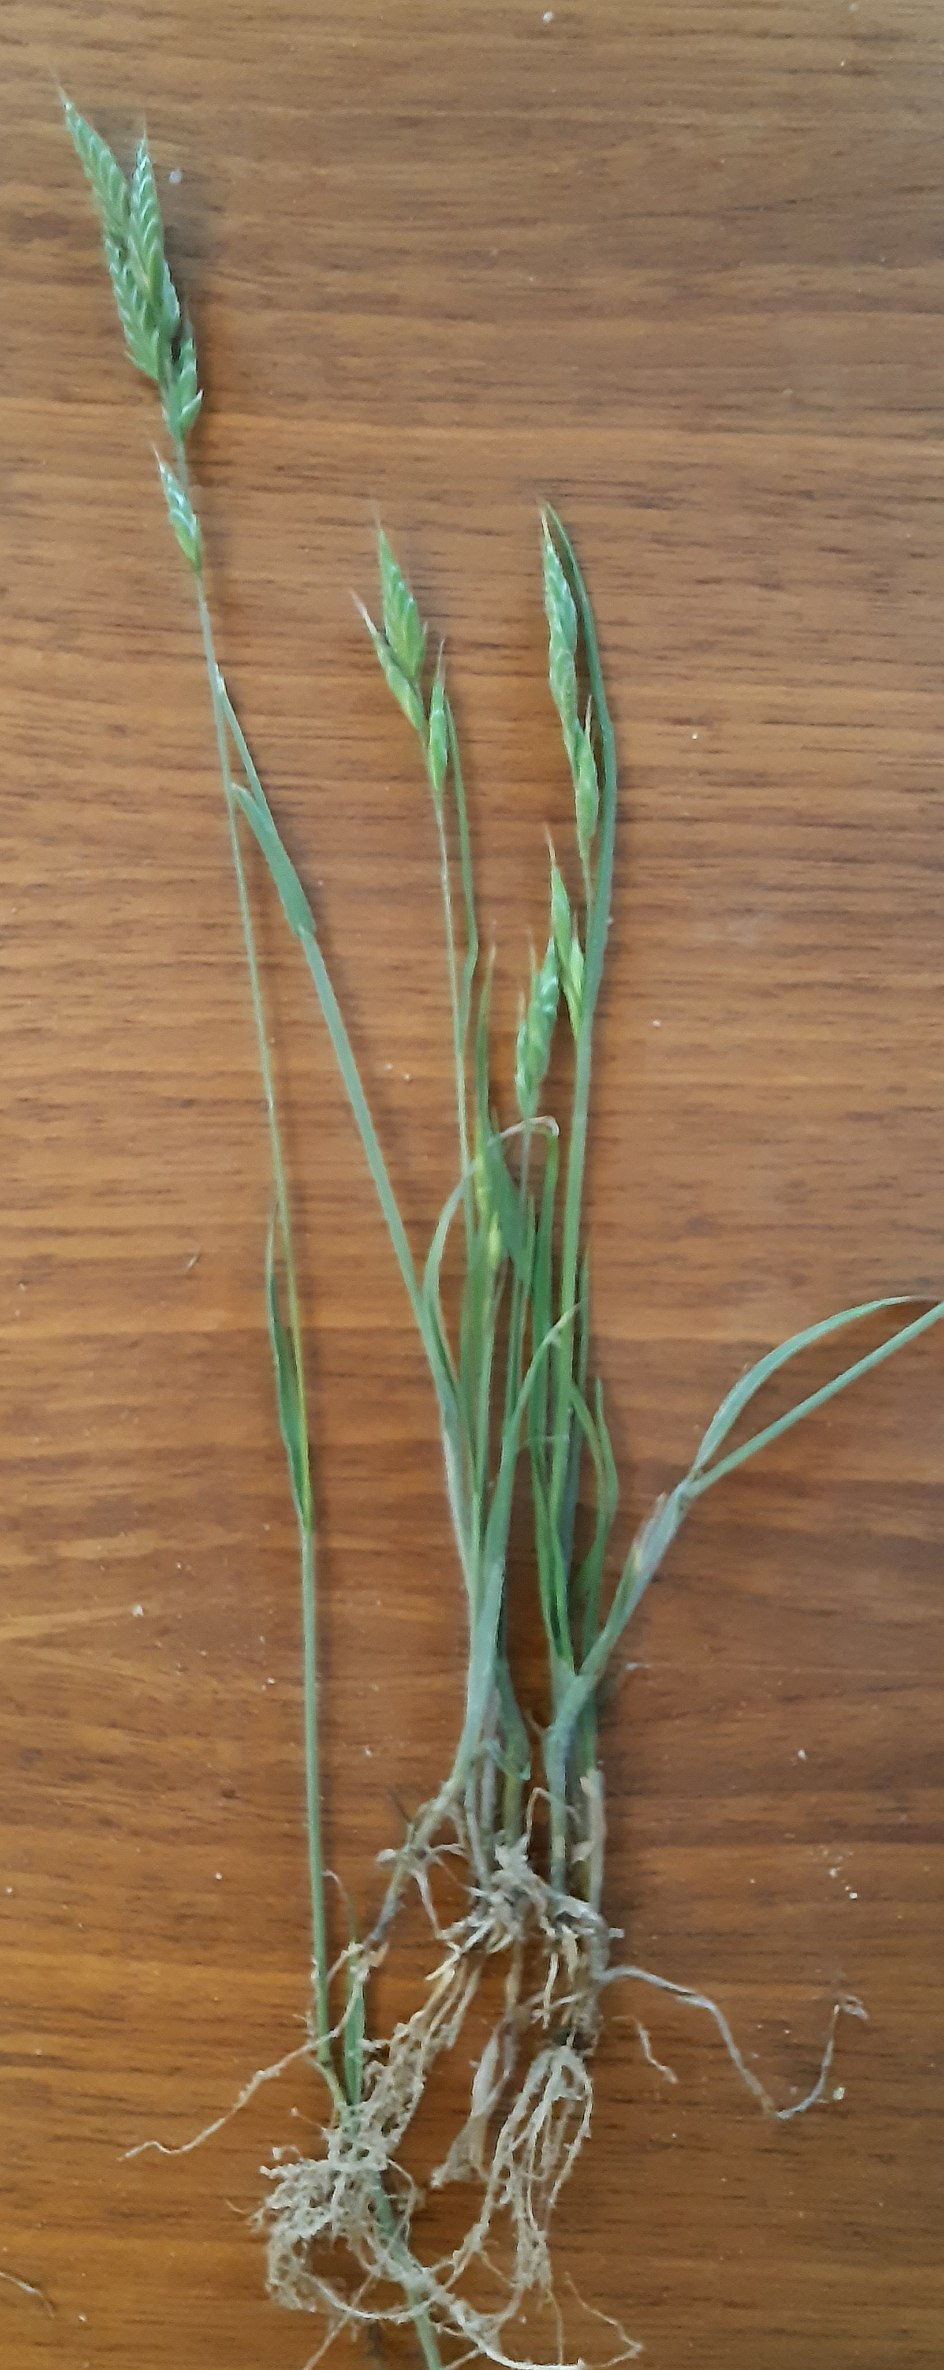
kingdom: Plantae
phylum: Tracheophyta
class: Liliopsida
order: Poales
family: Poaceae
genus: Bromus
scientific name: Bromus hordeaceus
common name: Blød hejre
